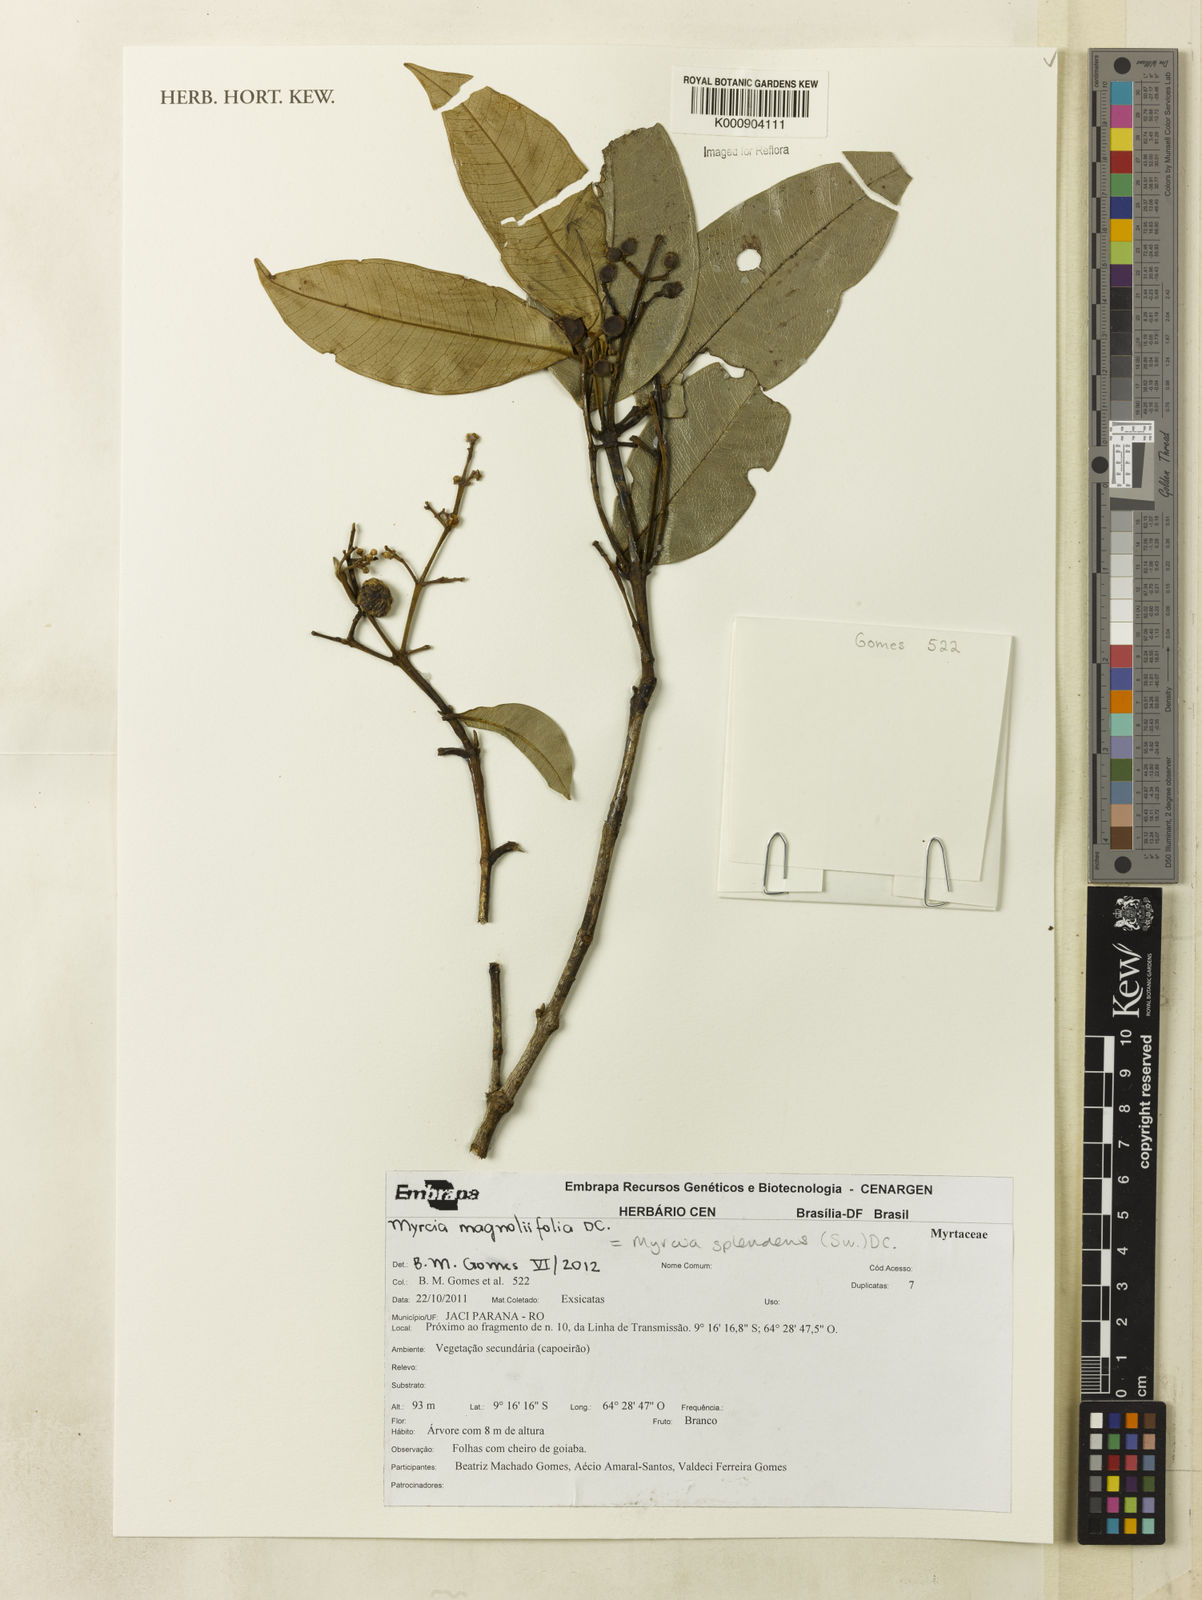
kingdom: Plantae
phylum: Tracheophyta
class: Magnoliopsida
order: Myrtales
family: Myrtaceae
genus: Myrcia
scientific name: Myrcia splendens
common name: Surinam cherry
